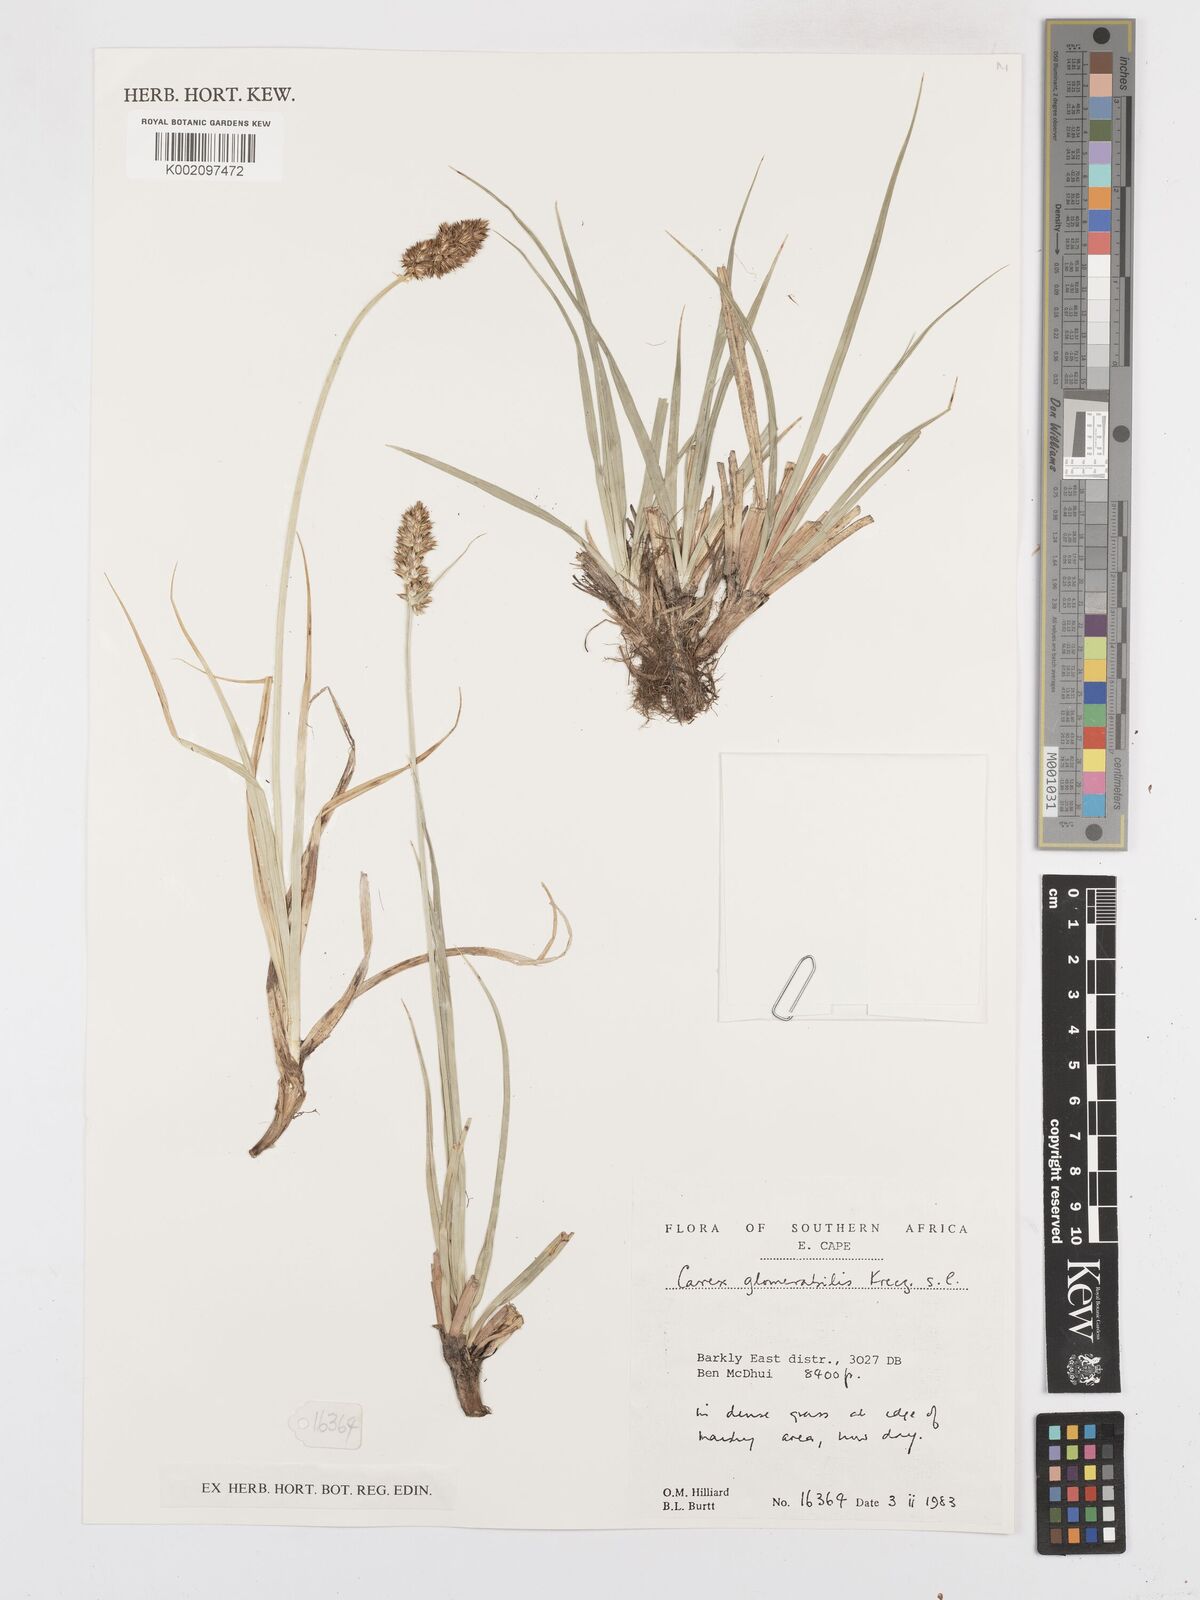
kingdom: Plantae
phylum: Tracheophyta
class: Liliopsida
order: Poales
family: Cyperaceae
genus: Carex
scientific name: Carex glomerata
